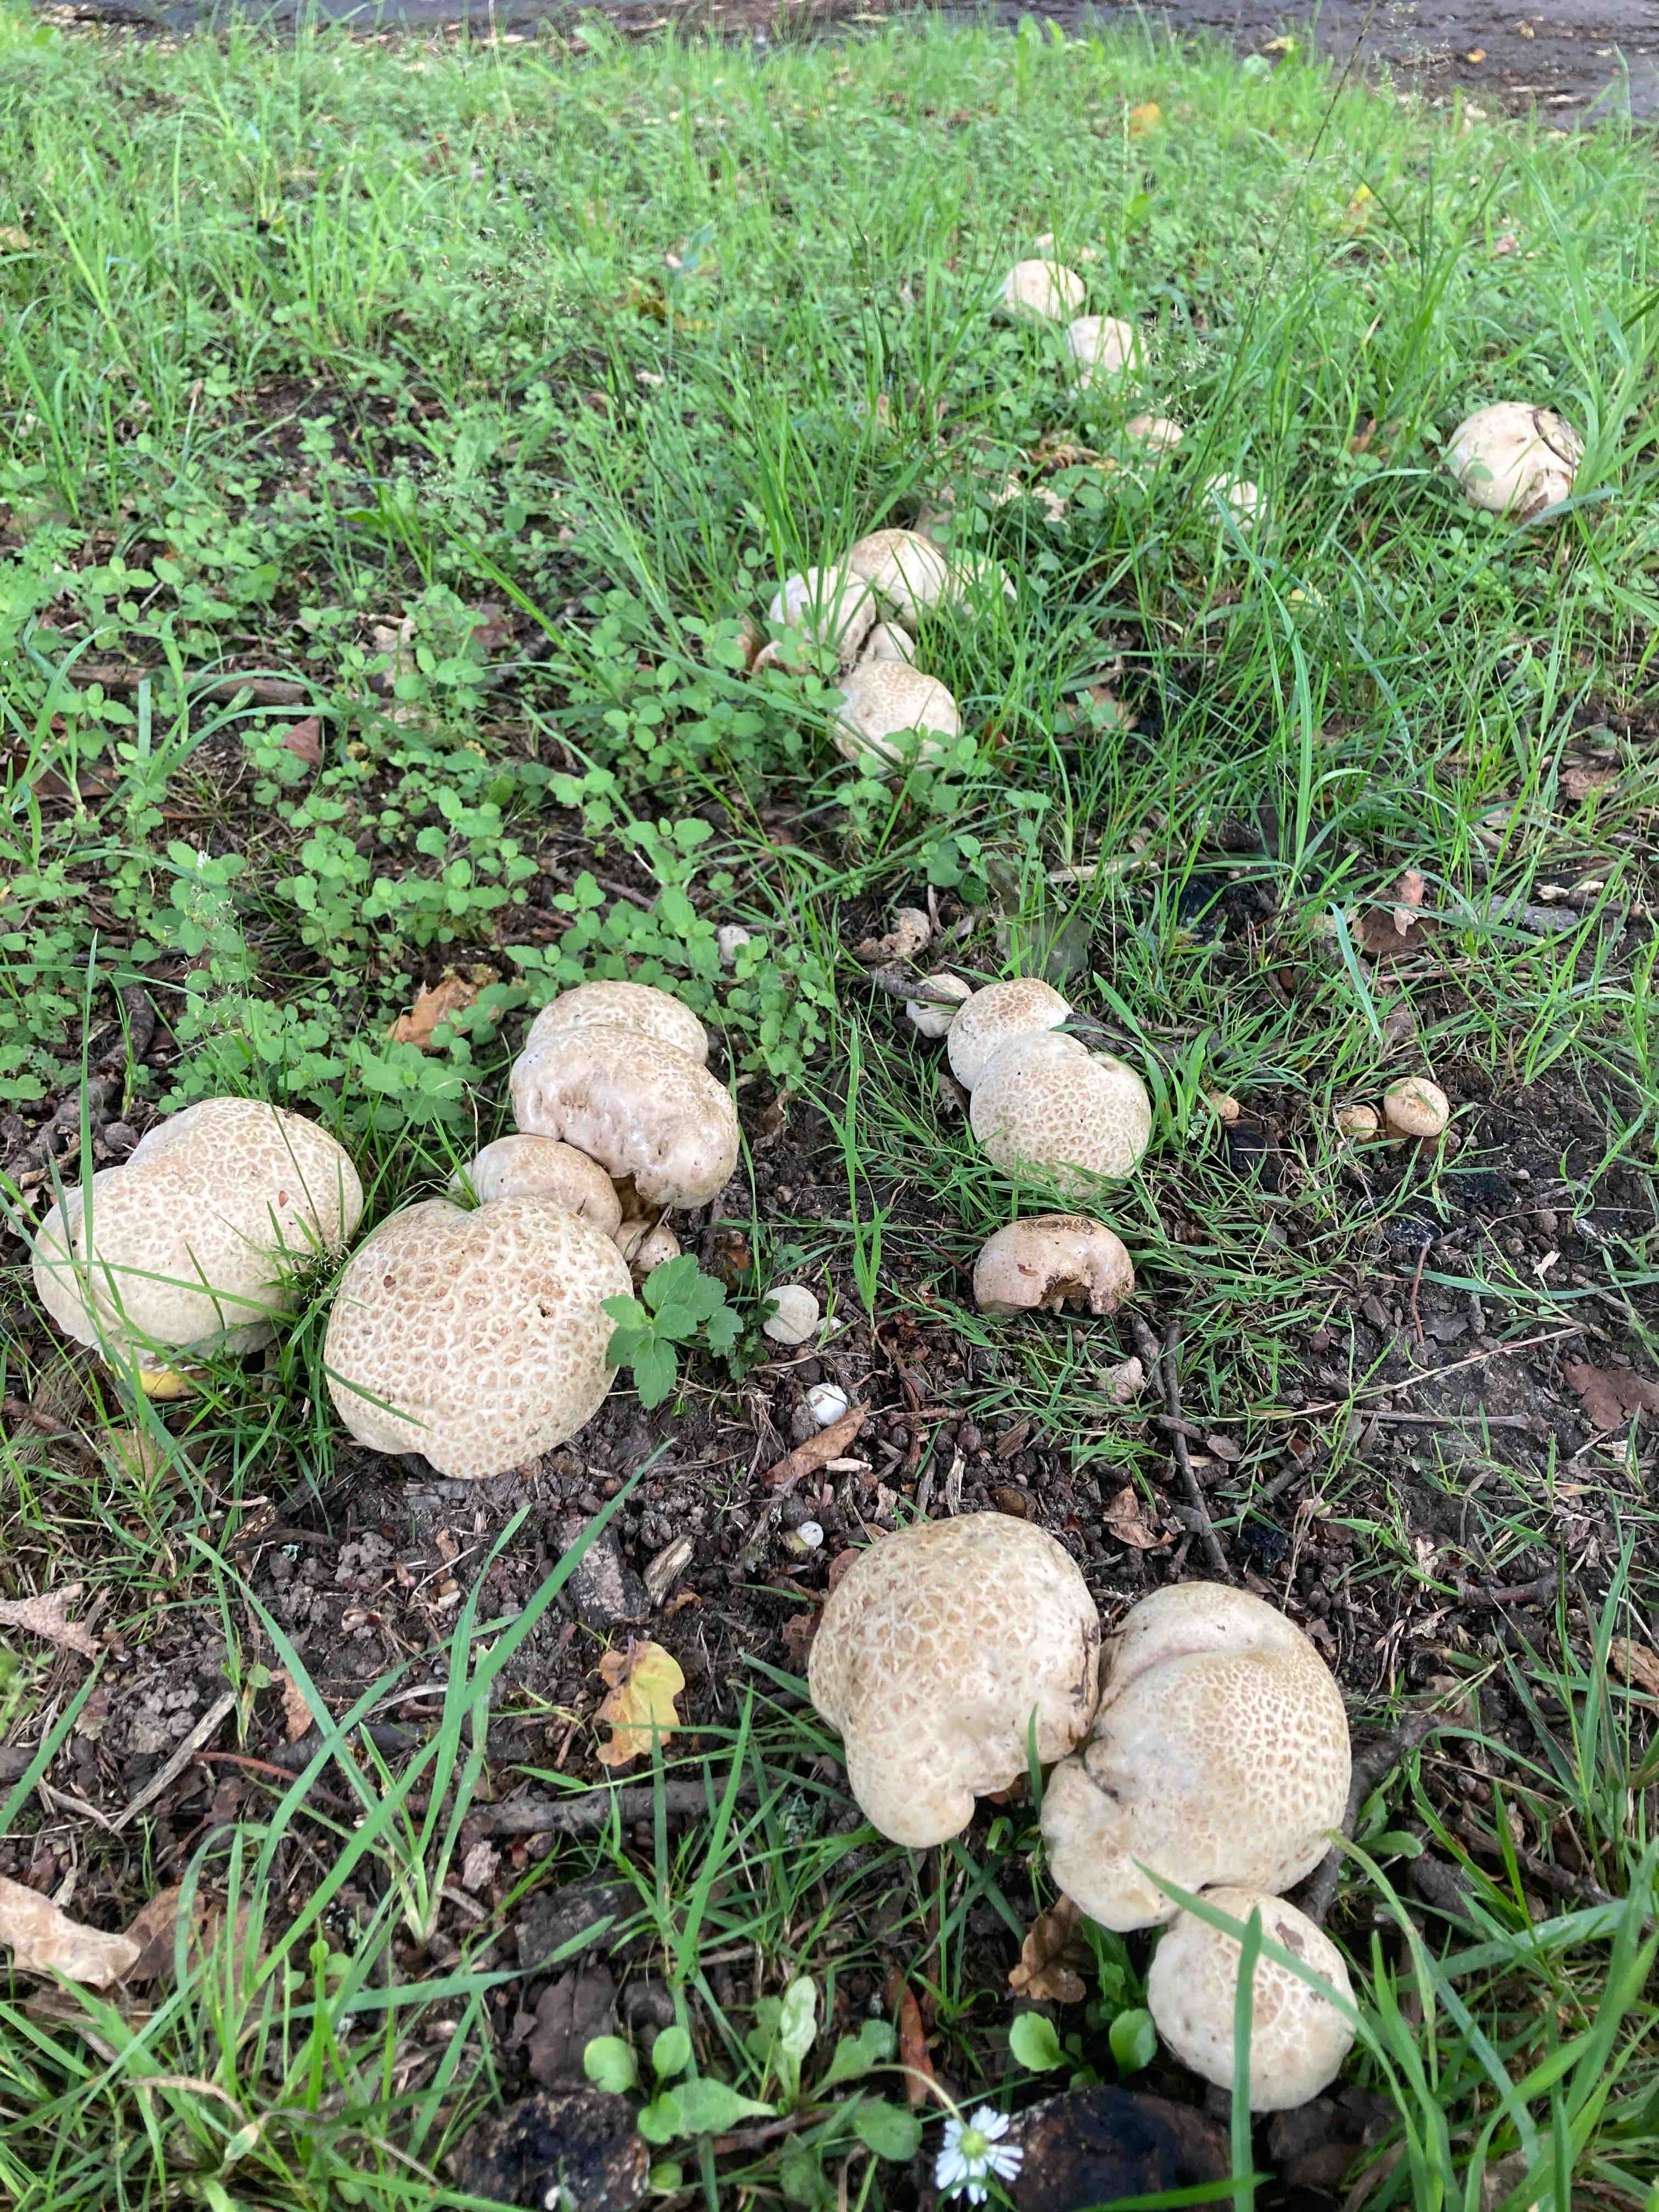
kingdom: Fungi
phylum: Basidiomycota
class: Agaricomycetes
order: Boletales
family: Boletaceae
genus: Caloboletus
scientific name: Caloboletus radicans
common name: rod-rørhat
